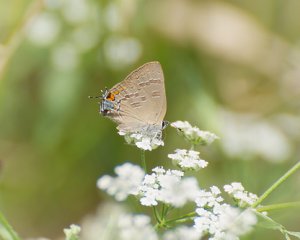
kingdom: Animalia
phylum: Arthropoda
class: Insecta
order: Lepidoptera
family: Lycaenidae
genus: Satyrium
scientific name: Satyrium calanus
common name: Banded Hairstreak
